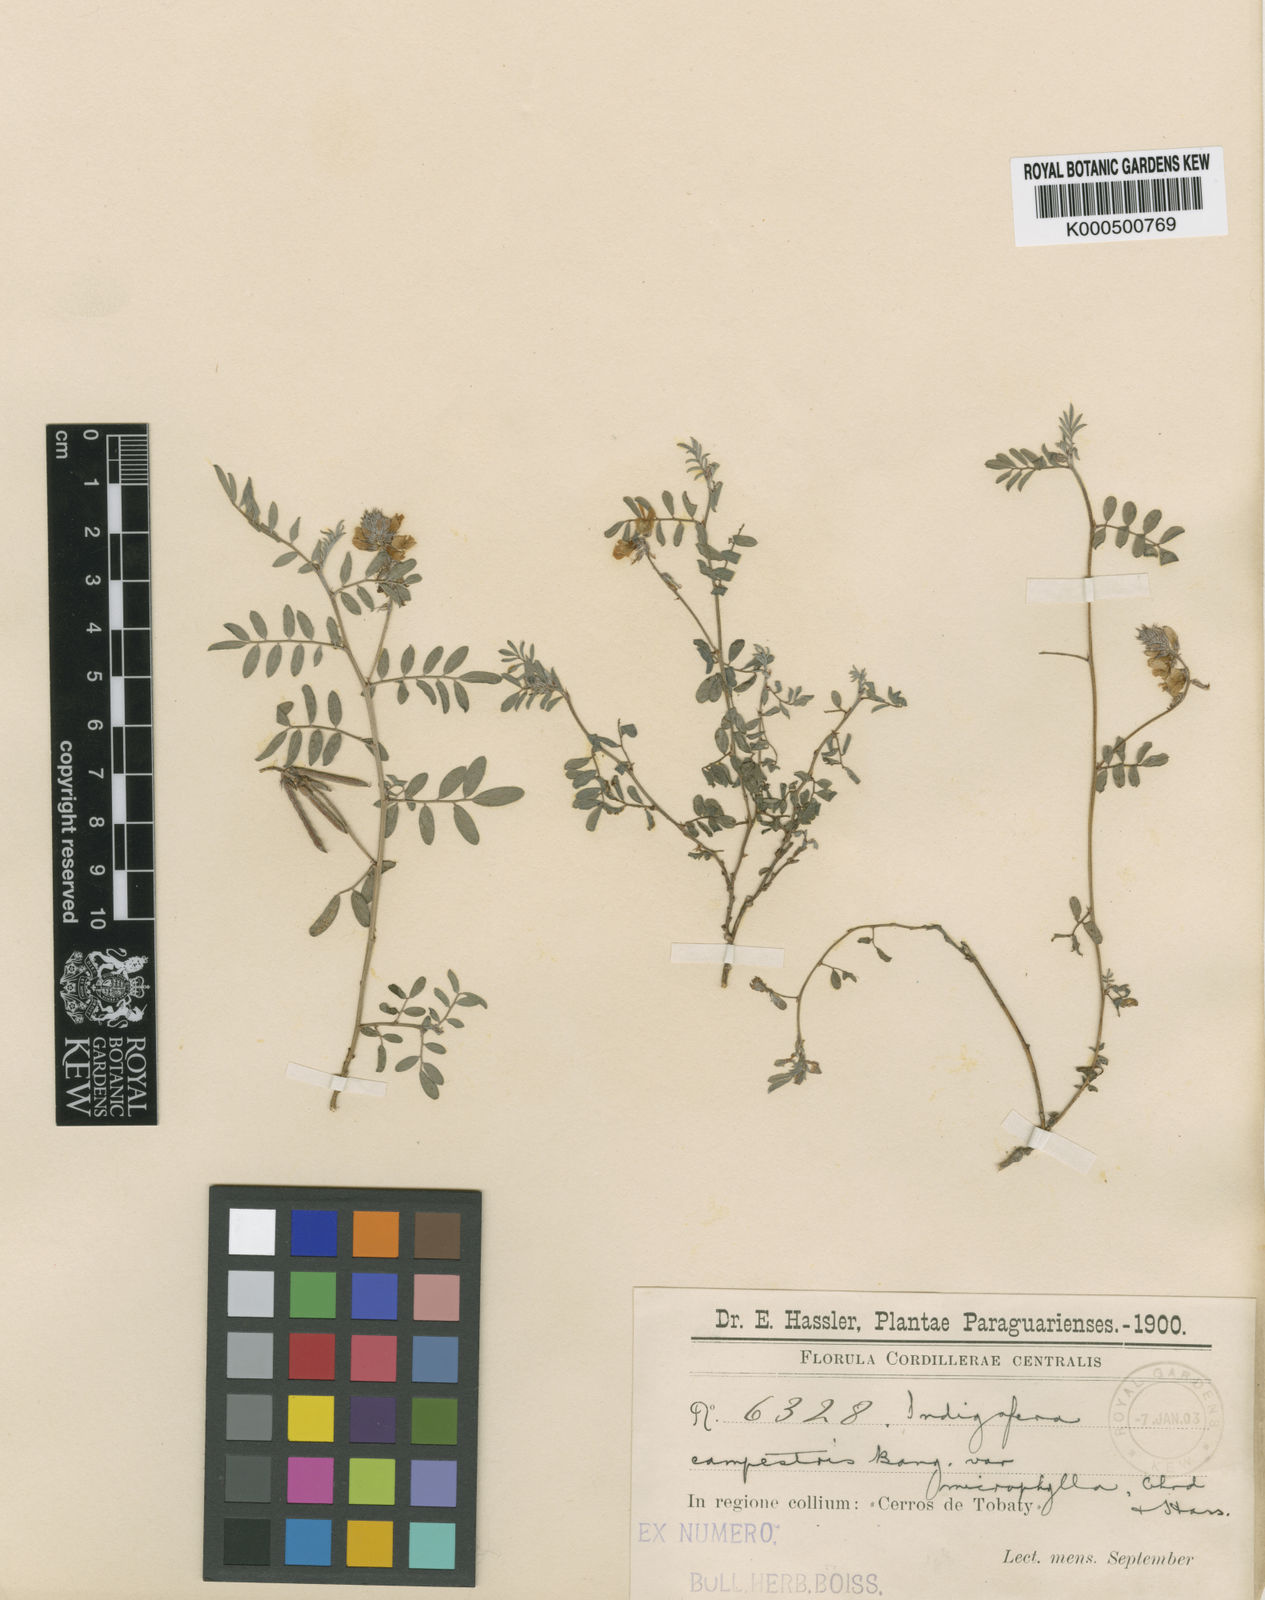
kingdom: Plantae
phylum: Tracheophyta
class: Magnoliopsida
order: Fabales
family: Fabaceae
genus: Indigofera
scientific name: Indigofera campestris
